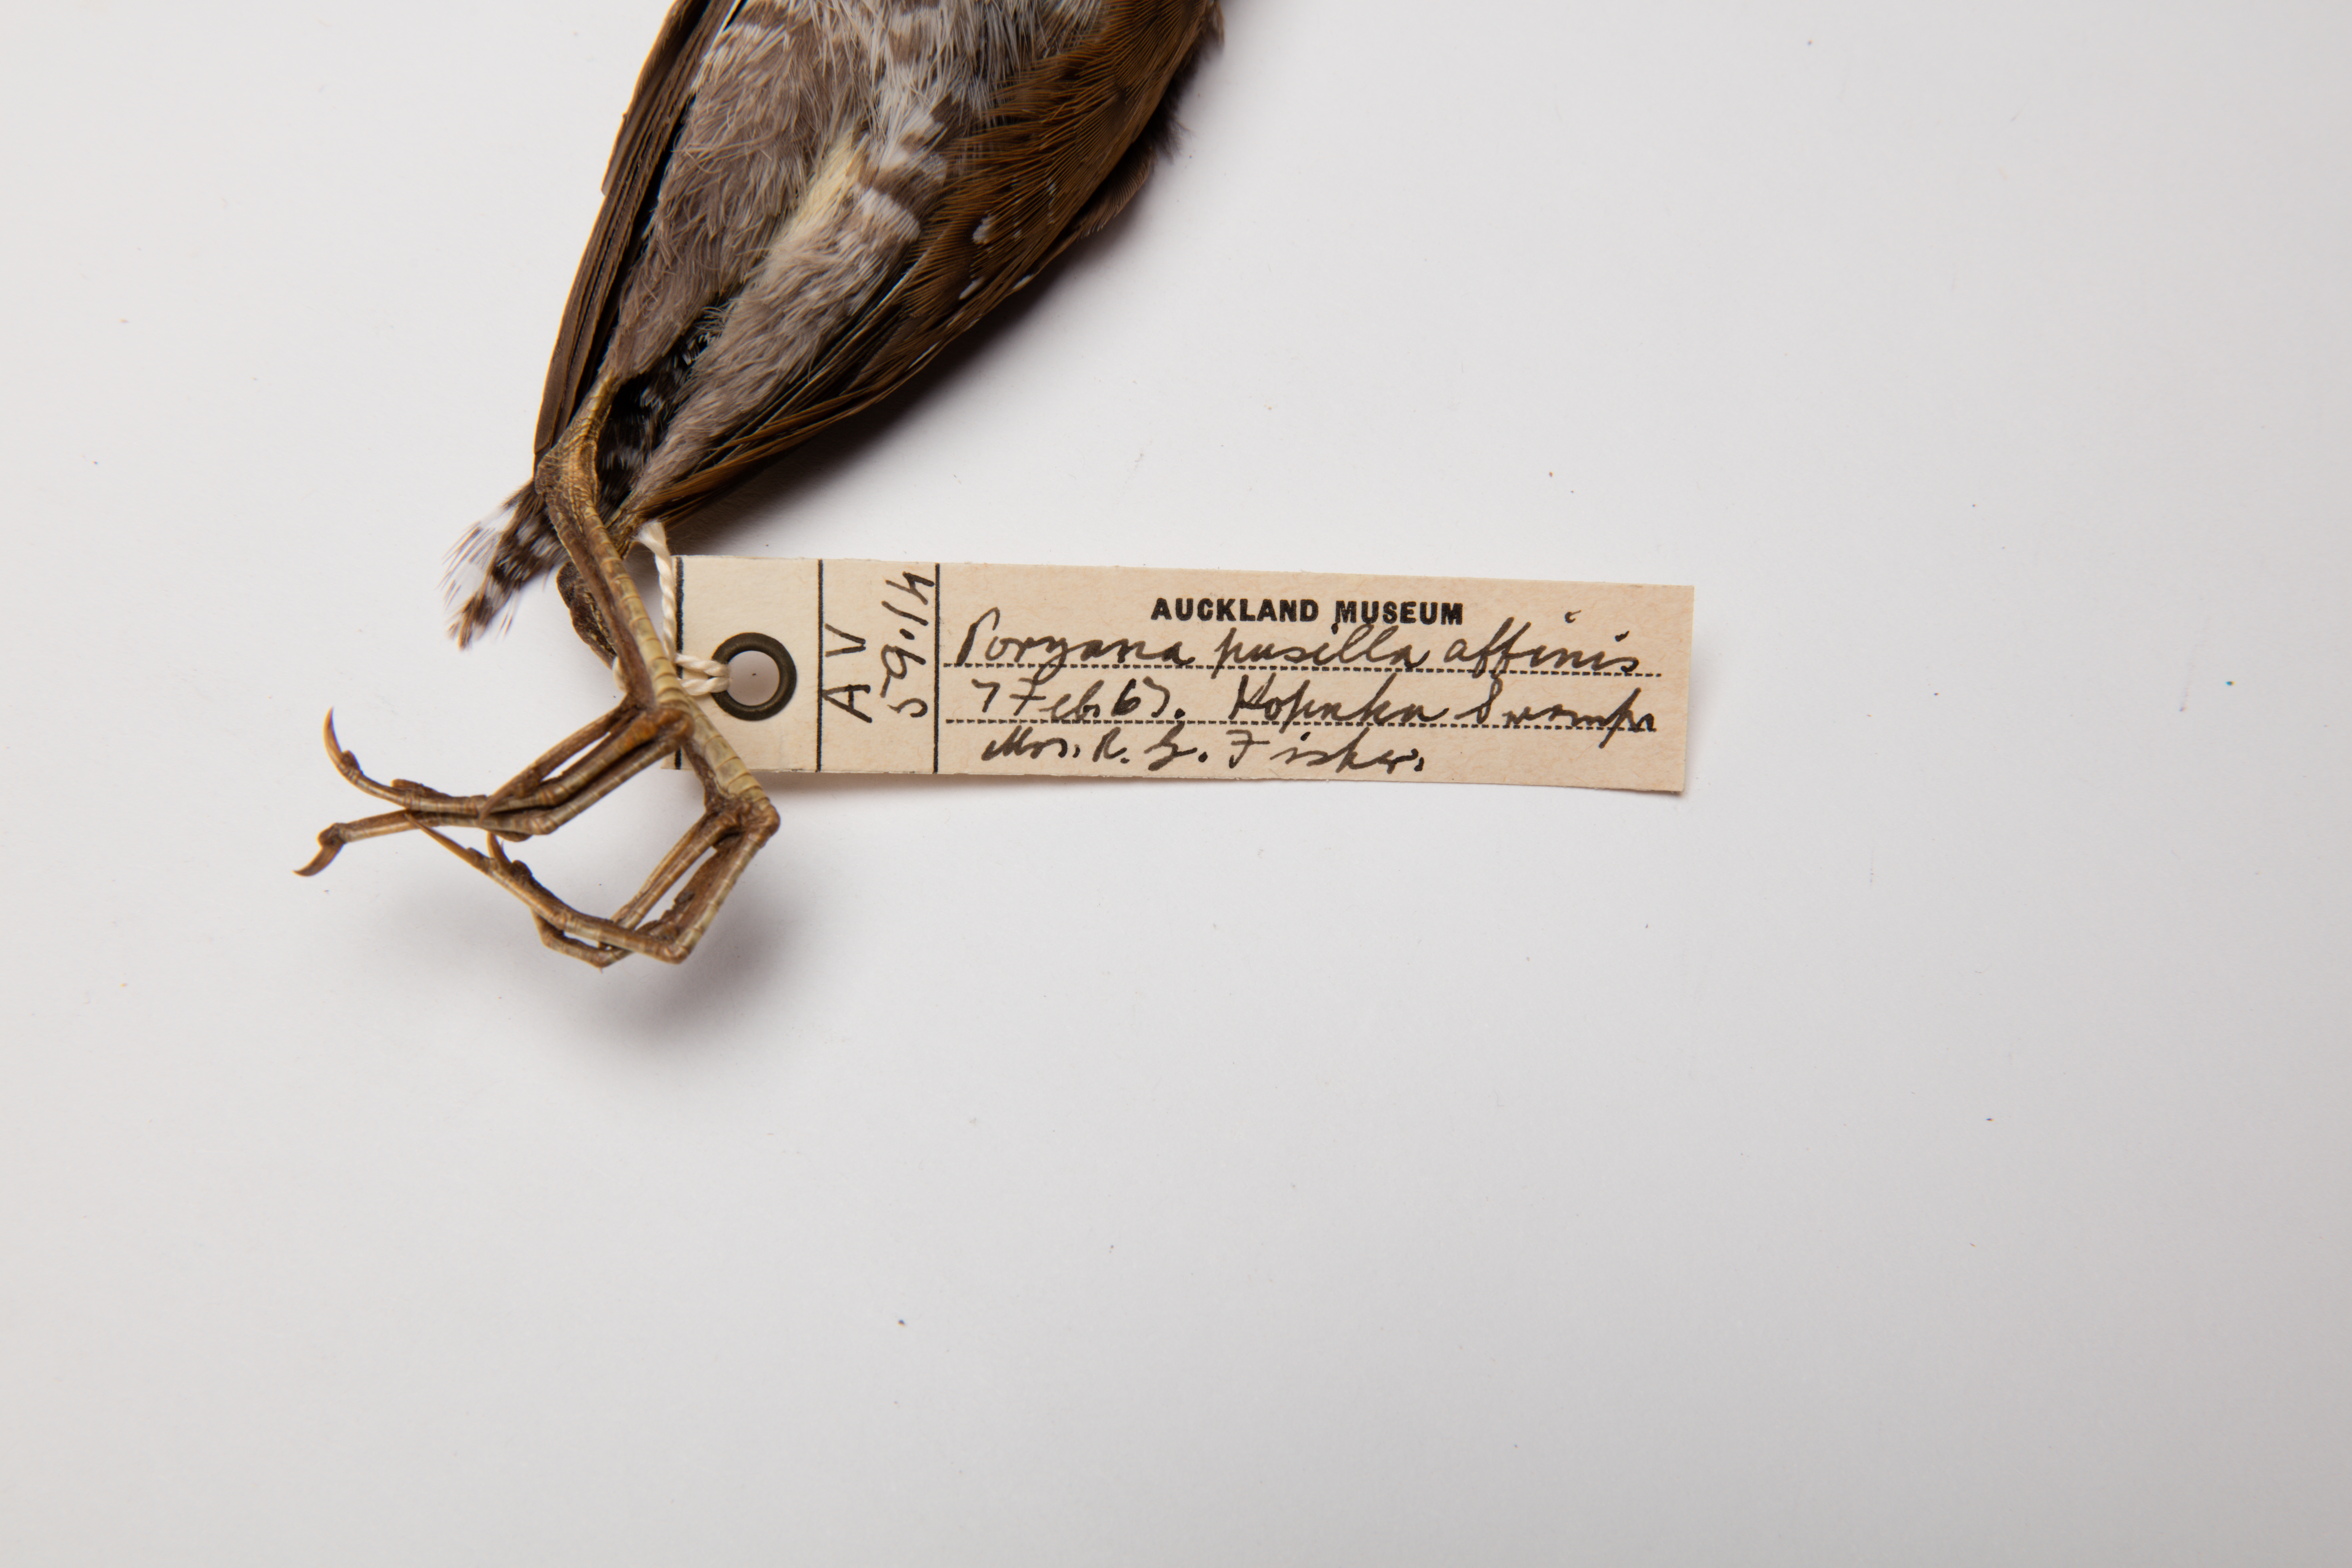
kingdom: Animalia
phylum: Chordata
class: Aves
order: Gruiformes
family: Rallidae
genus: Porzana
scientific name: Porzana pusilla
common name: Baillon's crake
